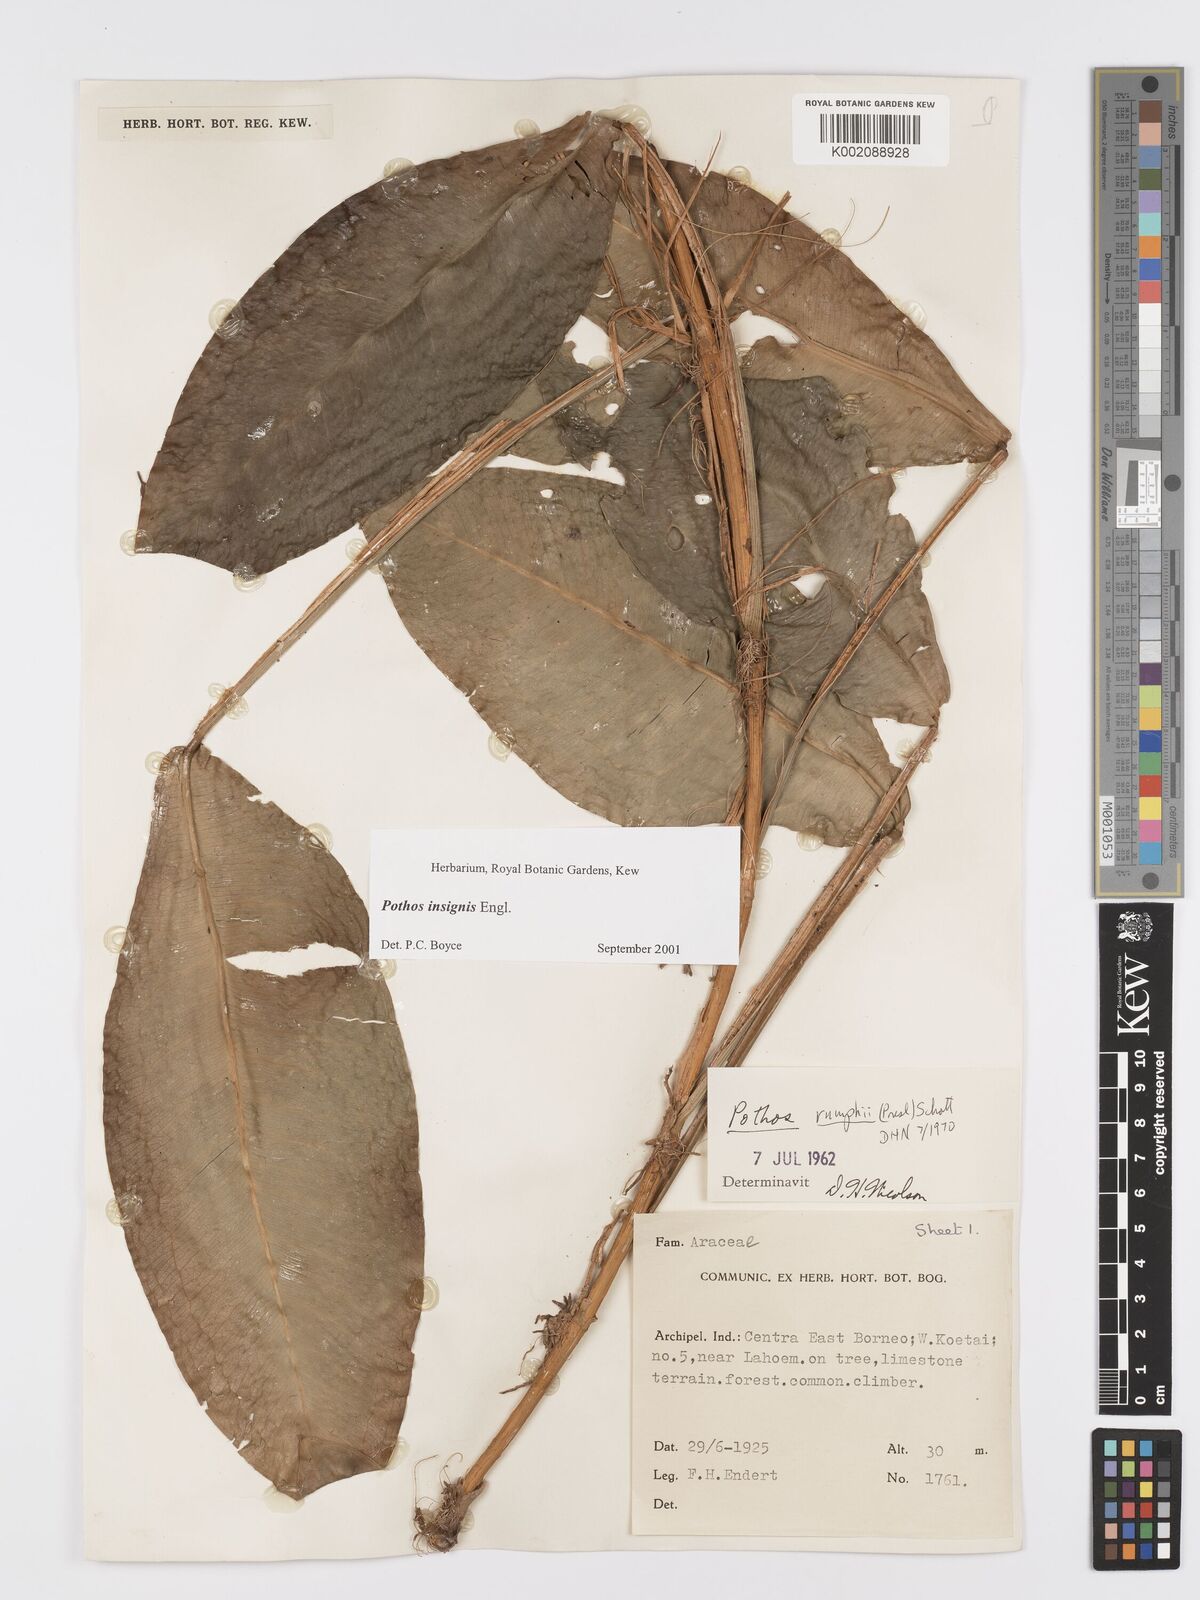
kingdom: Plantae
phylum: Tracheophyta
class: Liliopsida
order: Alismatales
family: Araceae
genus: Pothos
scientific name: Pothos insignis
